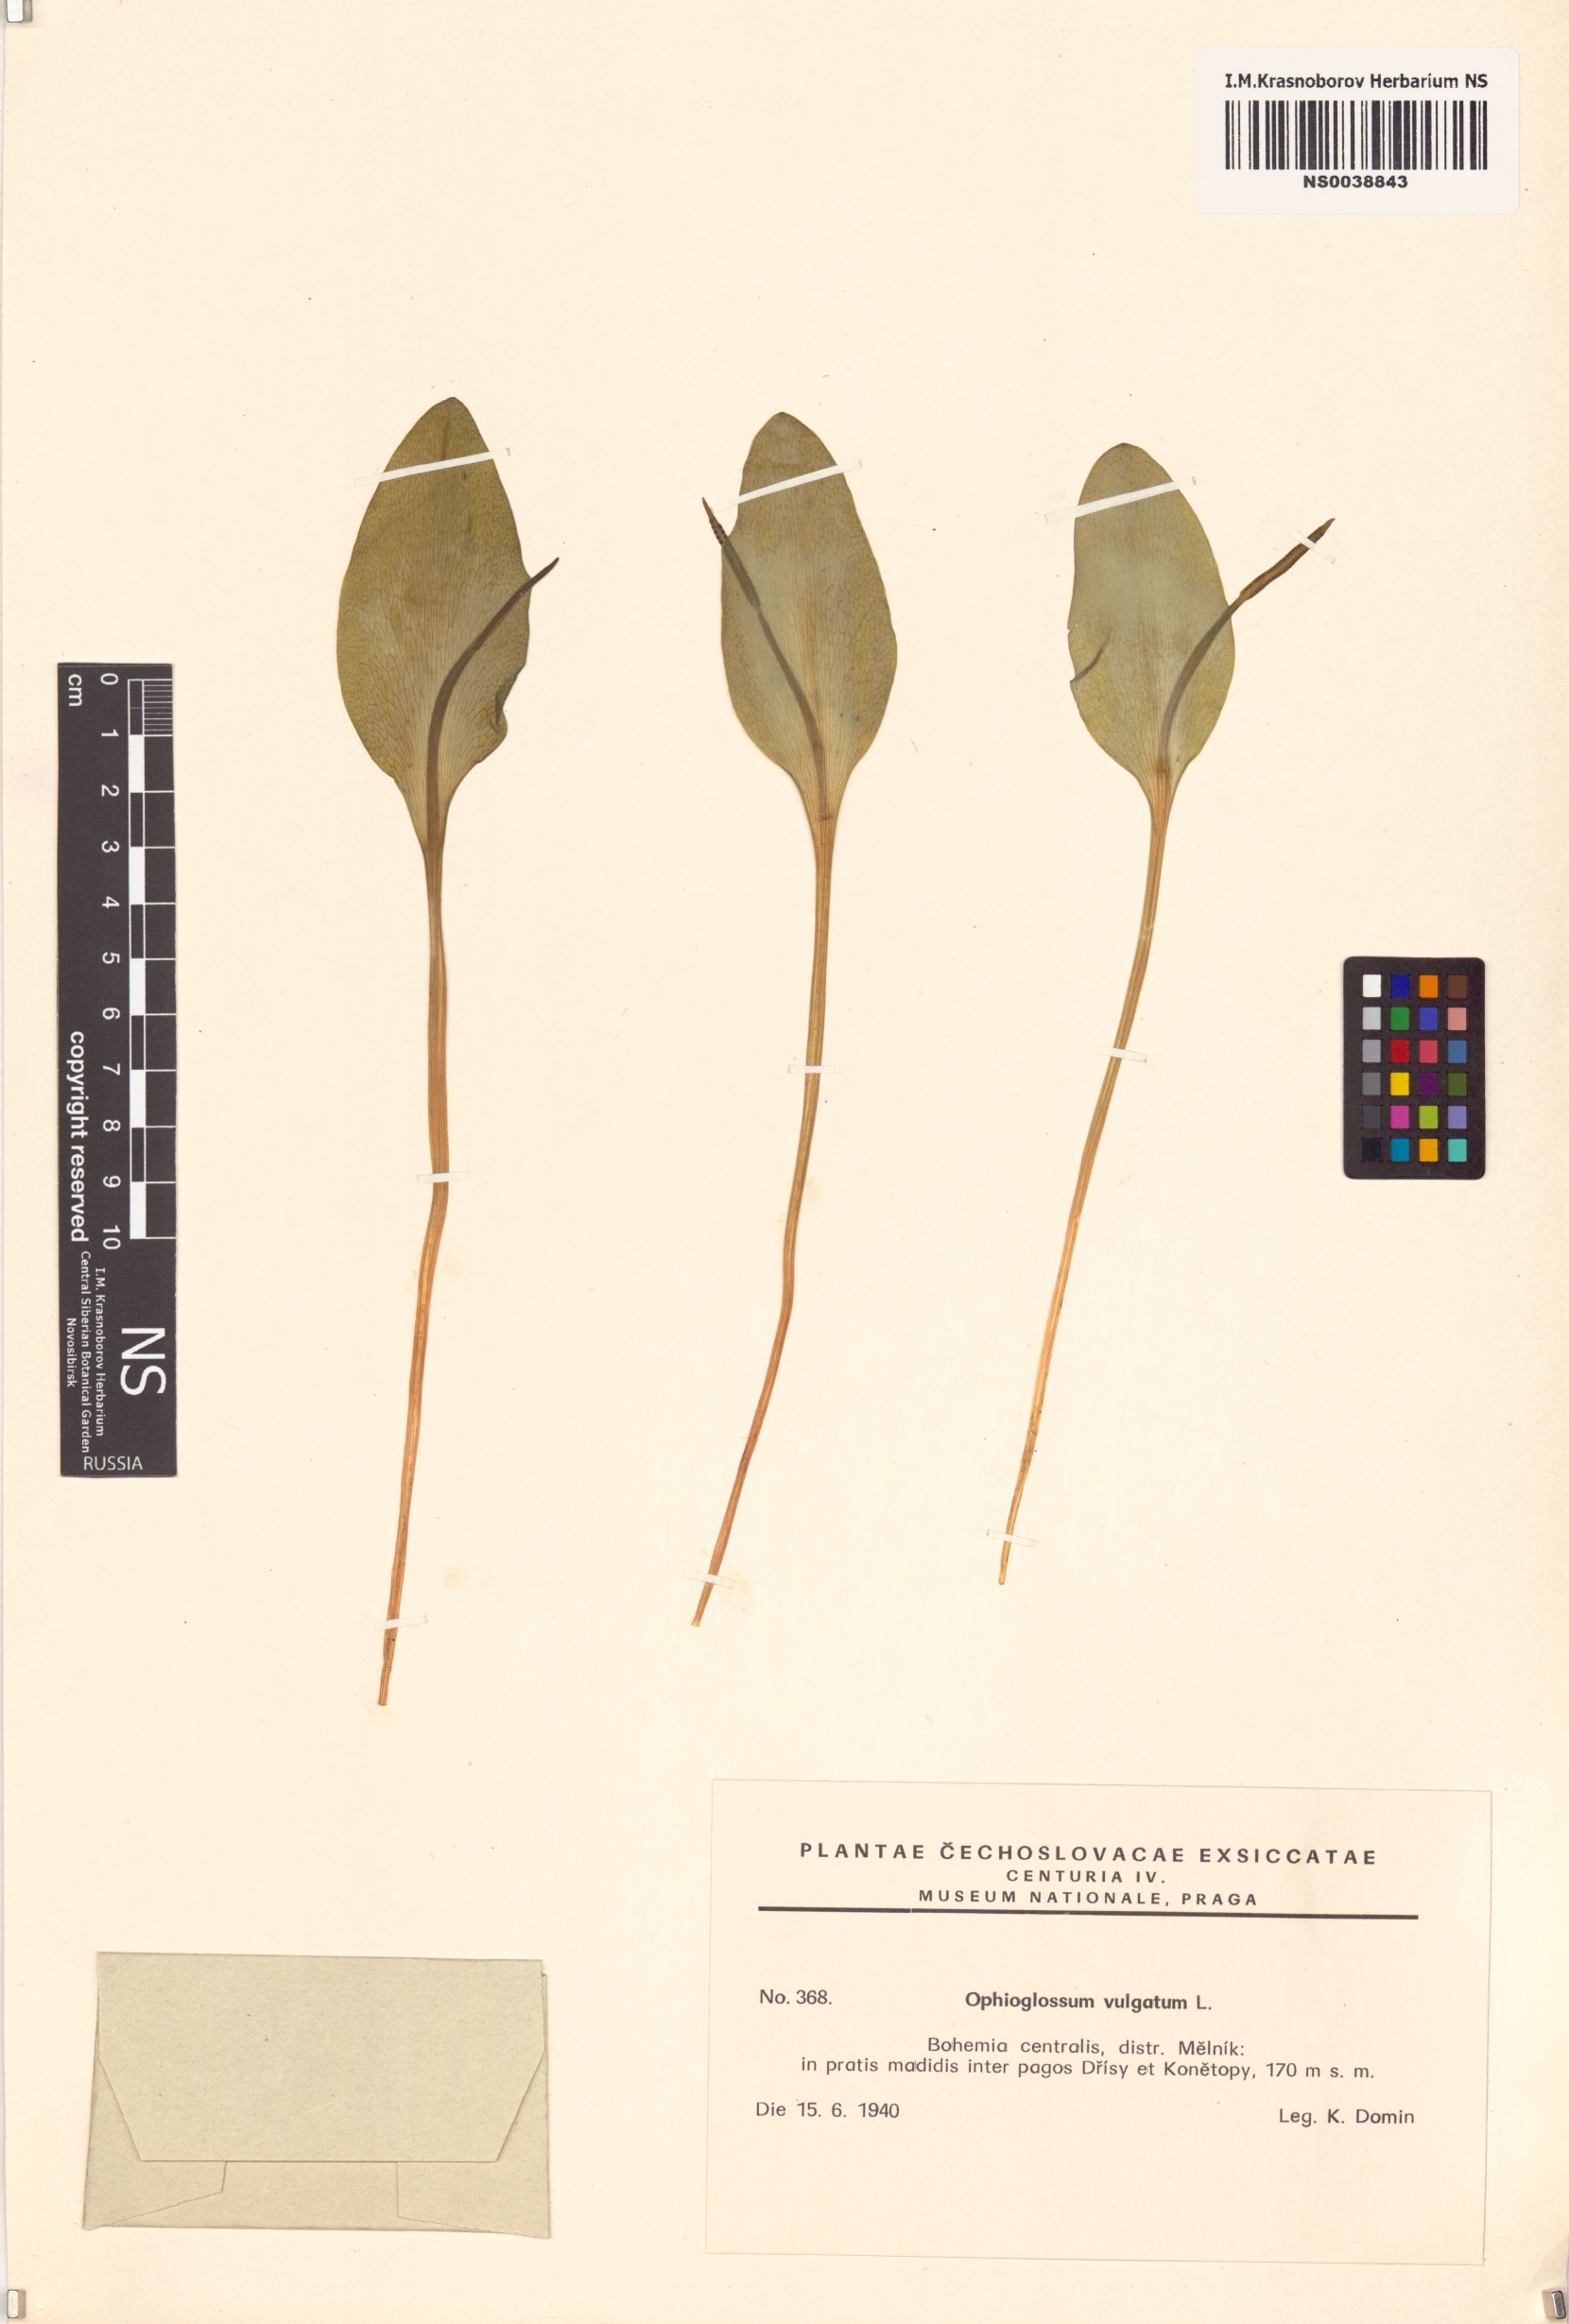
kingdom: Plantae
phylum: Tracheophyta
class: Polypodiopsida
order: Ophioglossales
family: Ophioglossaceae
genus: Ophioglossum
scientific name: Ophioglossum vulgatum
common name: Adder's-tongue
